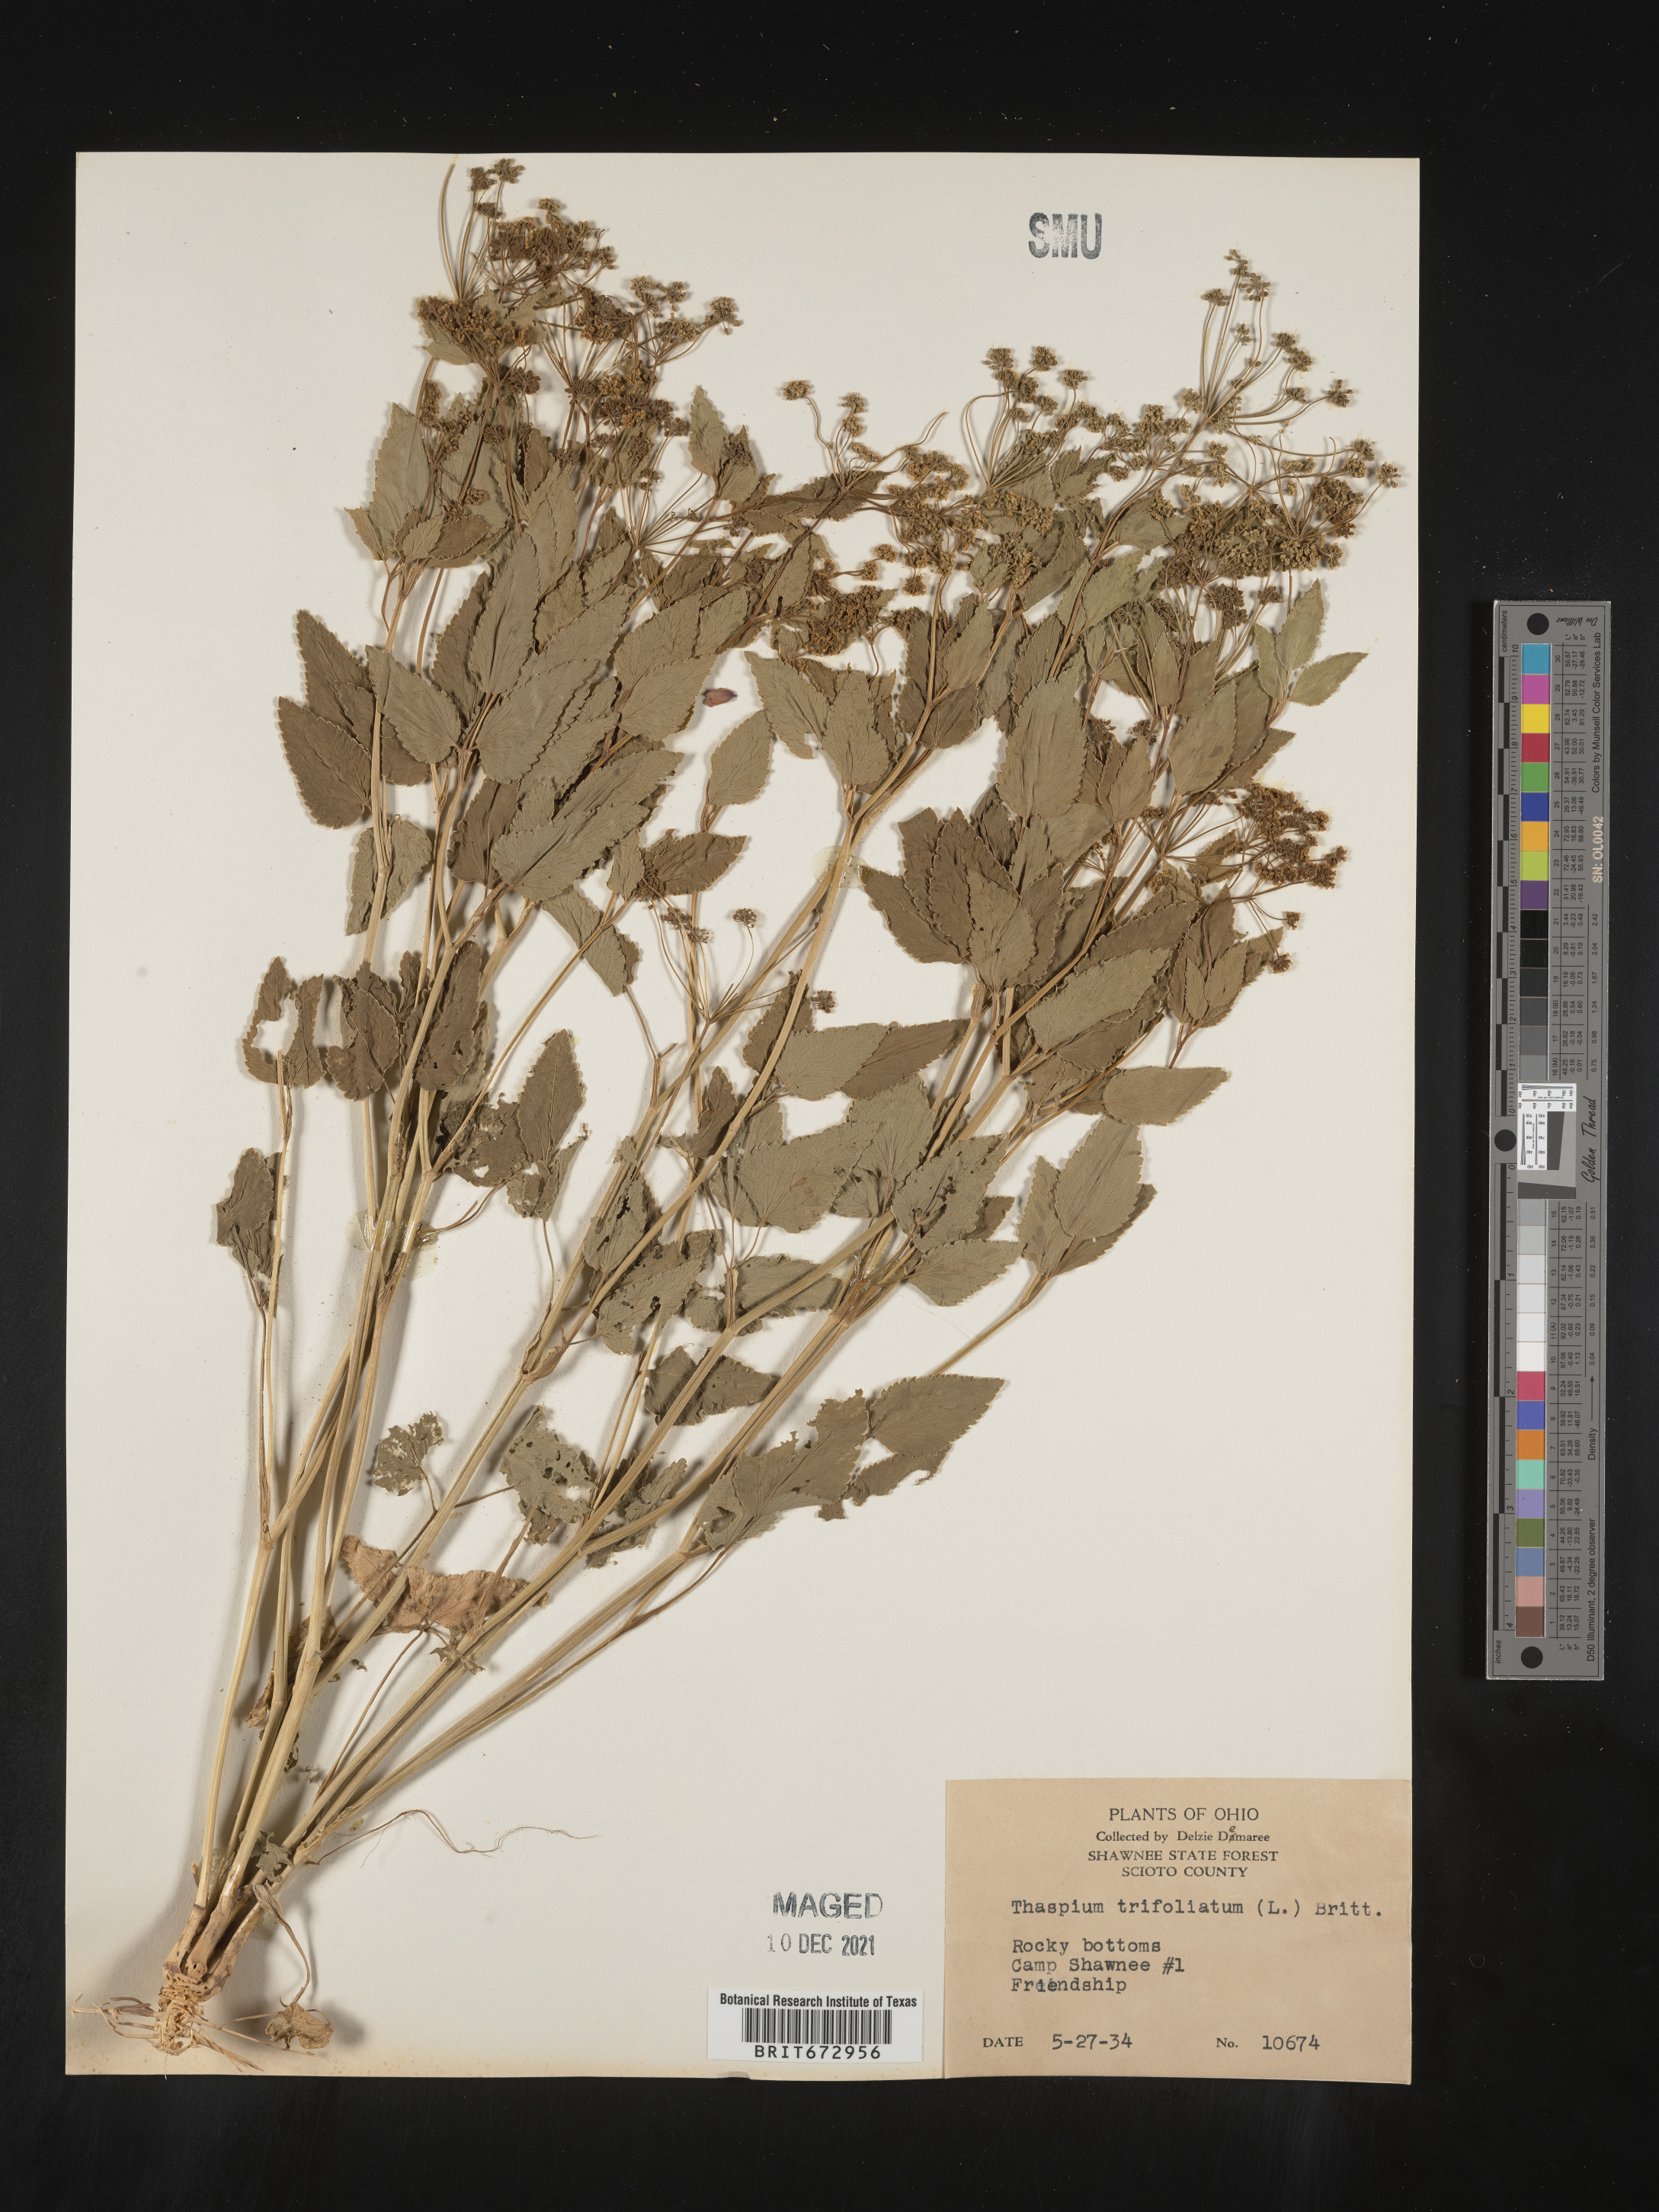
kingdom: Plantae
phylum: Tracheophyta
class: Magnoliopsida
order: Apiales
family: Apiaceae
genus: Thaspium
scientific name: Thaspium
